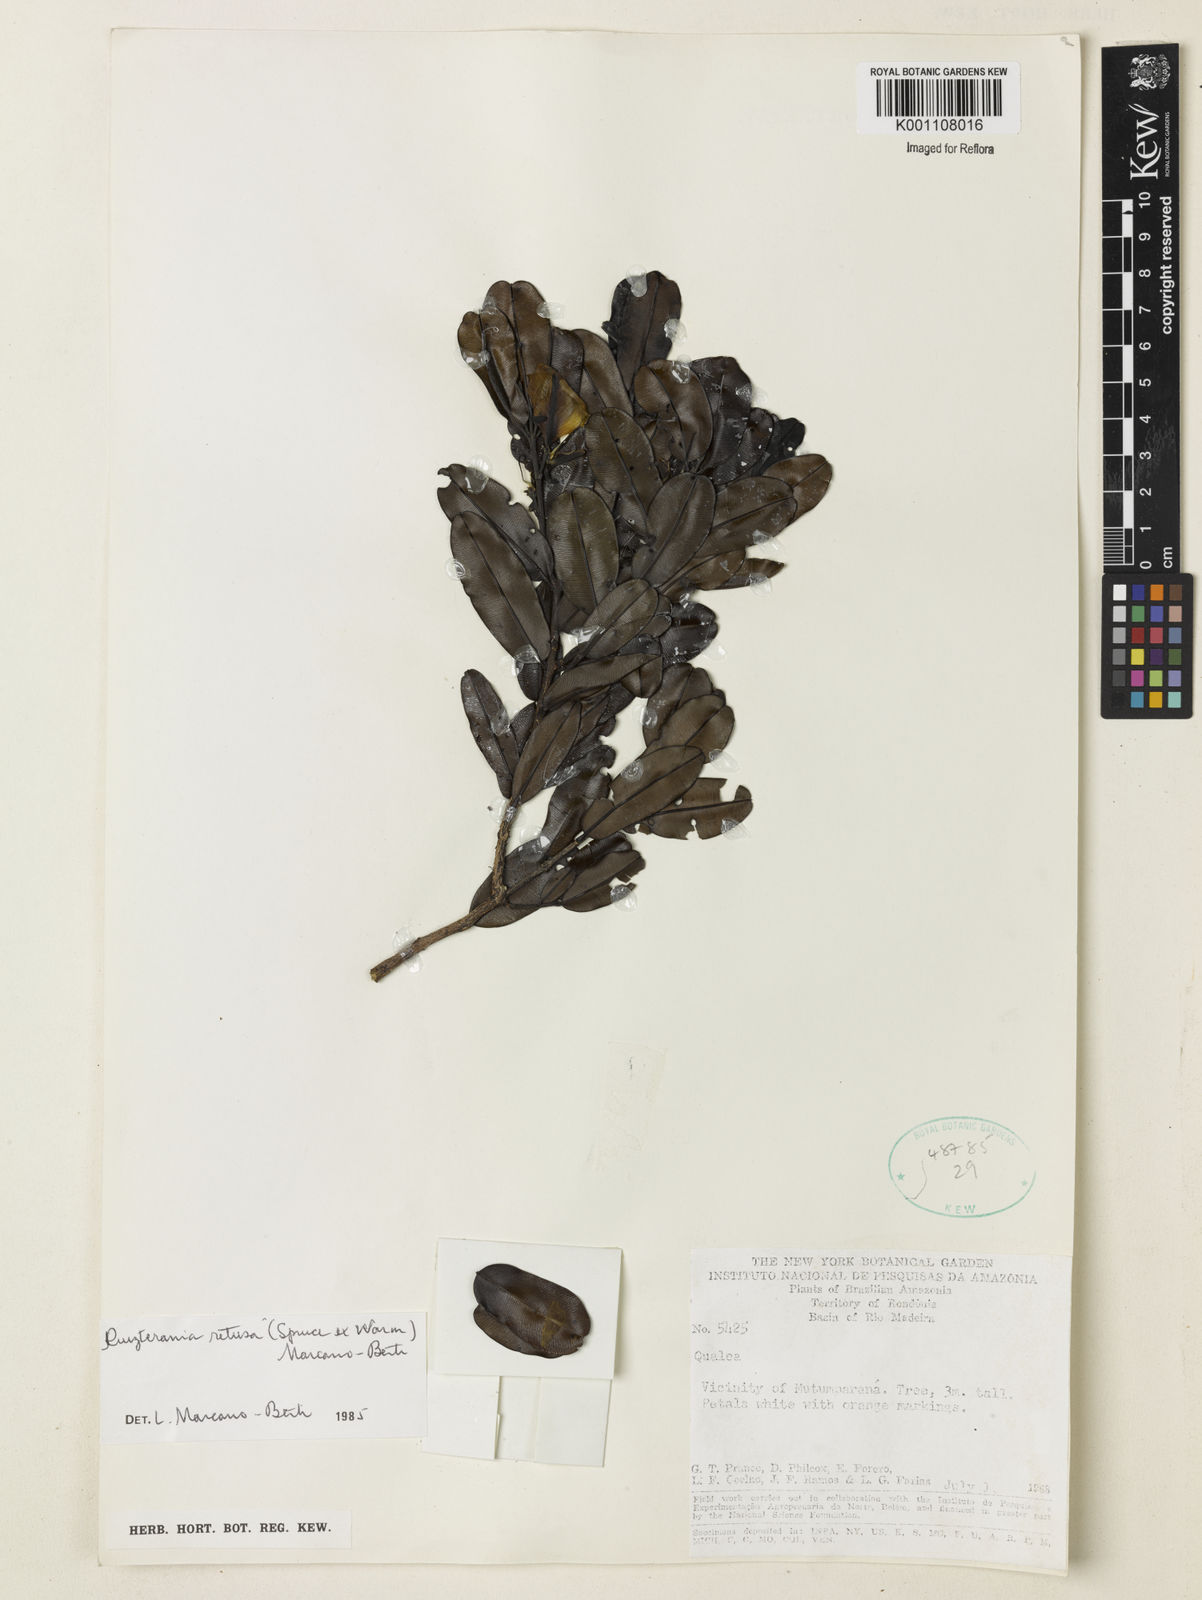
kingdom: Plantae
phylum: Tracheophyta
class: Magnoliopsida
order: Myrtales
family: Vochysiaceae
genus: Ruizterania
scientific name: Ruizterania retusa
